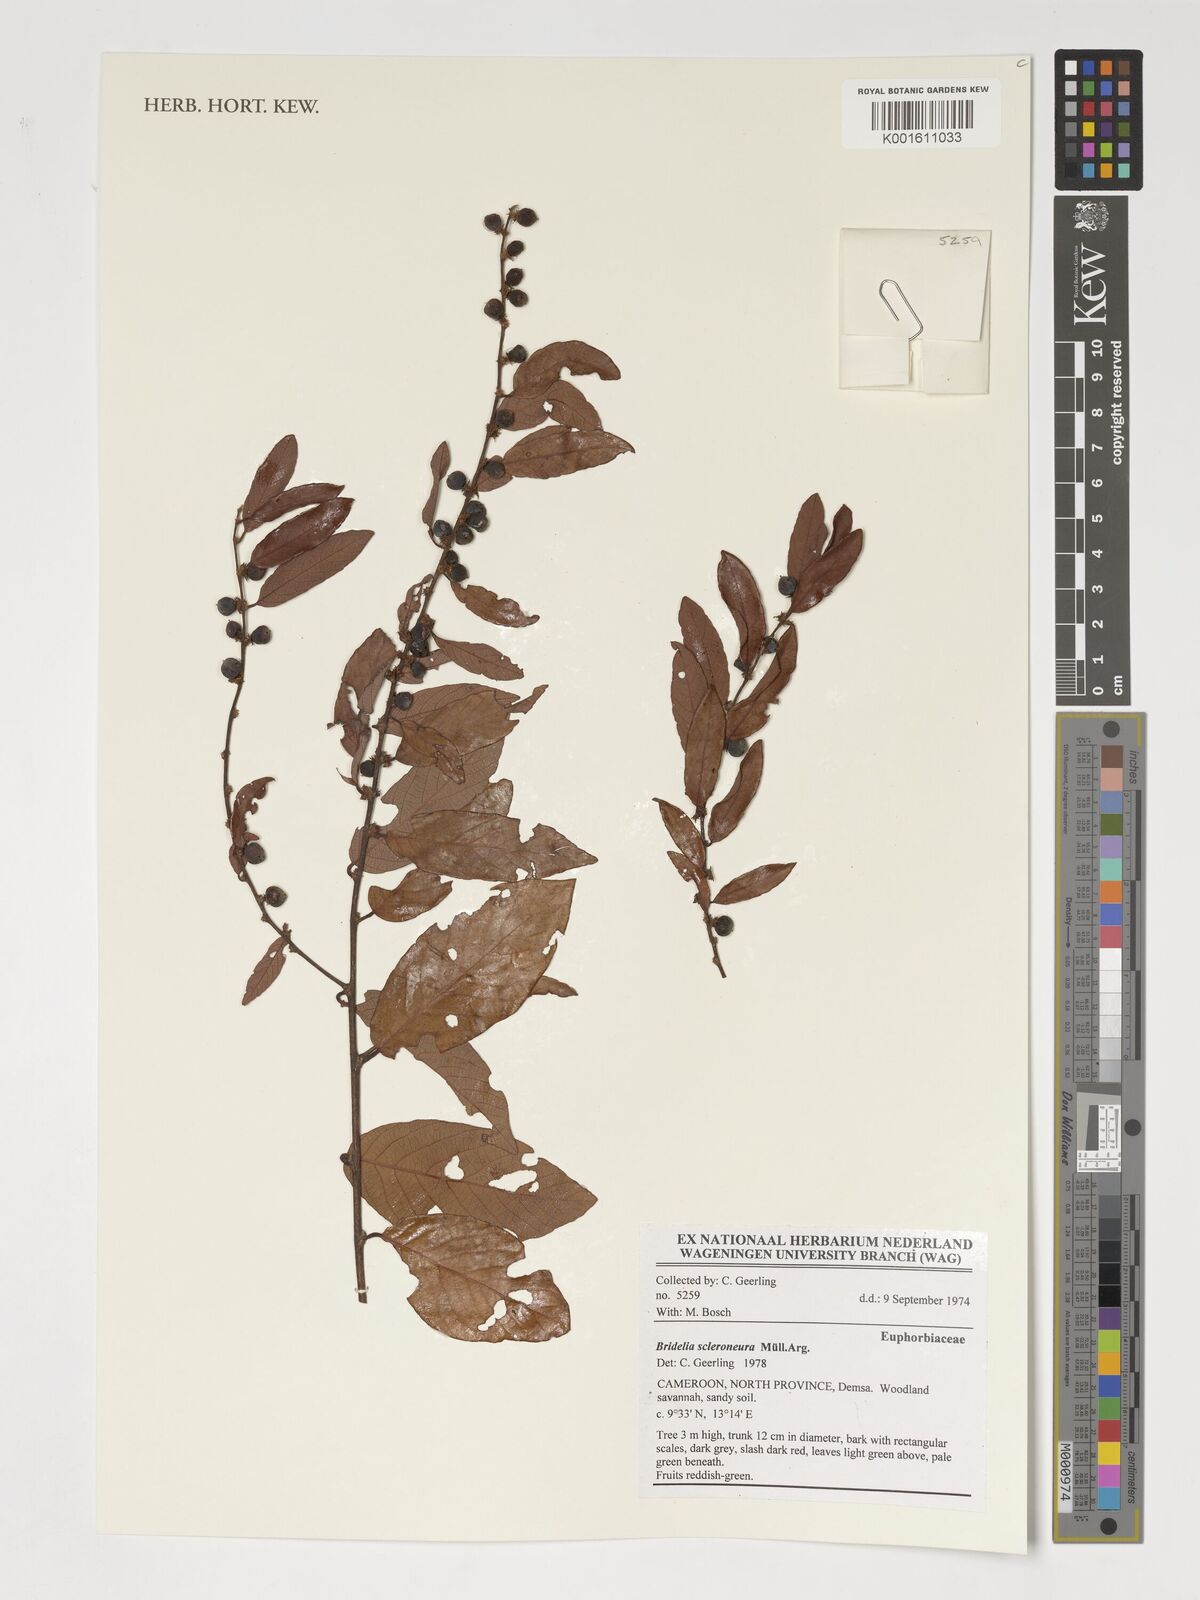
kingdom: Plantae
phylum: Tracheophyta
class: Magnoliopsida
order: Malpighiales
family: Phyllanthaceae
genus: Bridelia
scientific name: Bridelia scleroneura
